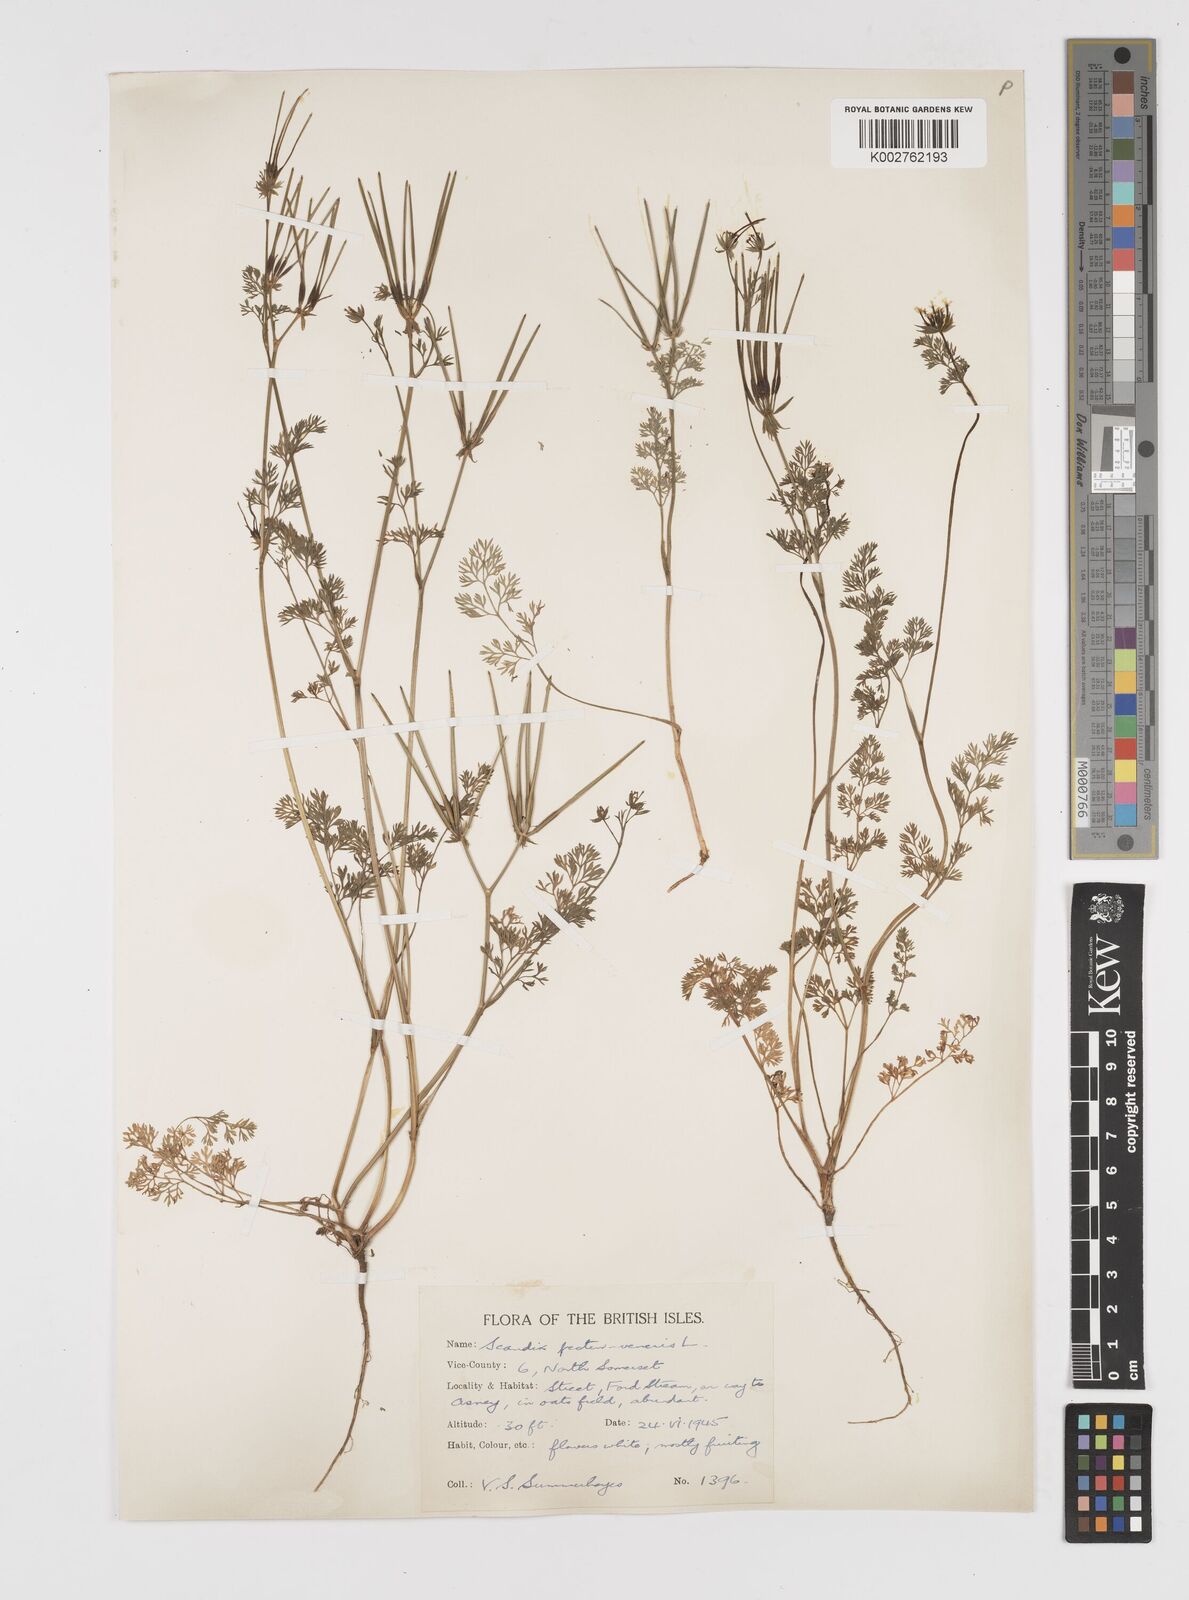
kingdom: Plantae
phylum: Tracheophyta
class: Magnoliopsida
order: Apiales
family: Apiaceae
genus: Scandix
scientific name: Scandix pecten-veneris
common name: Shepherd's-needle
